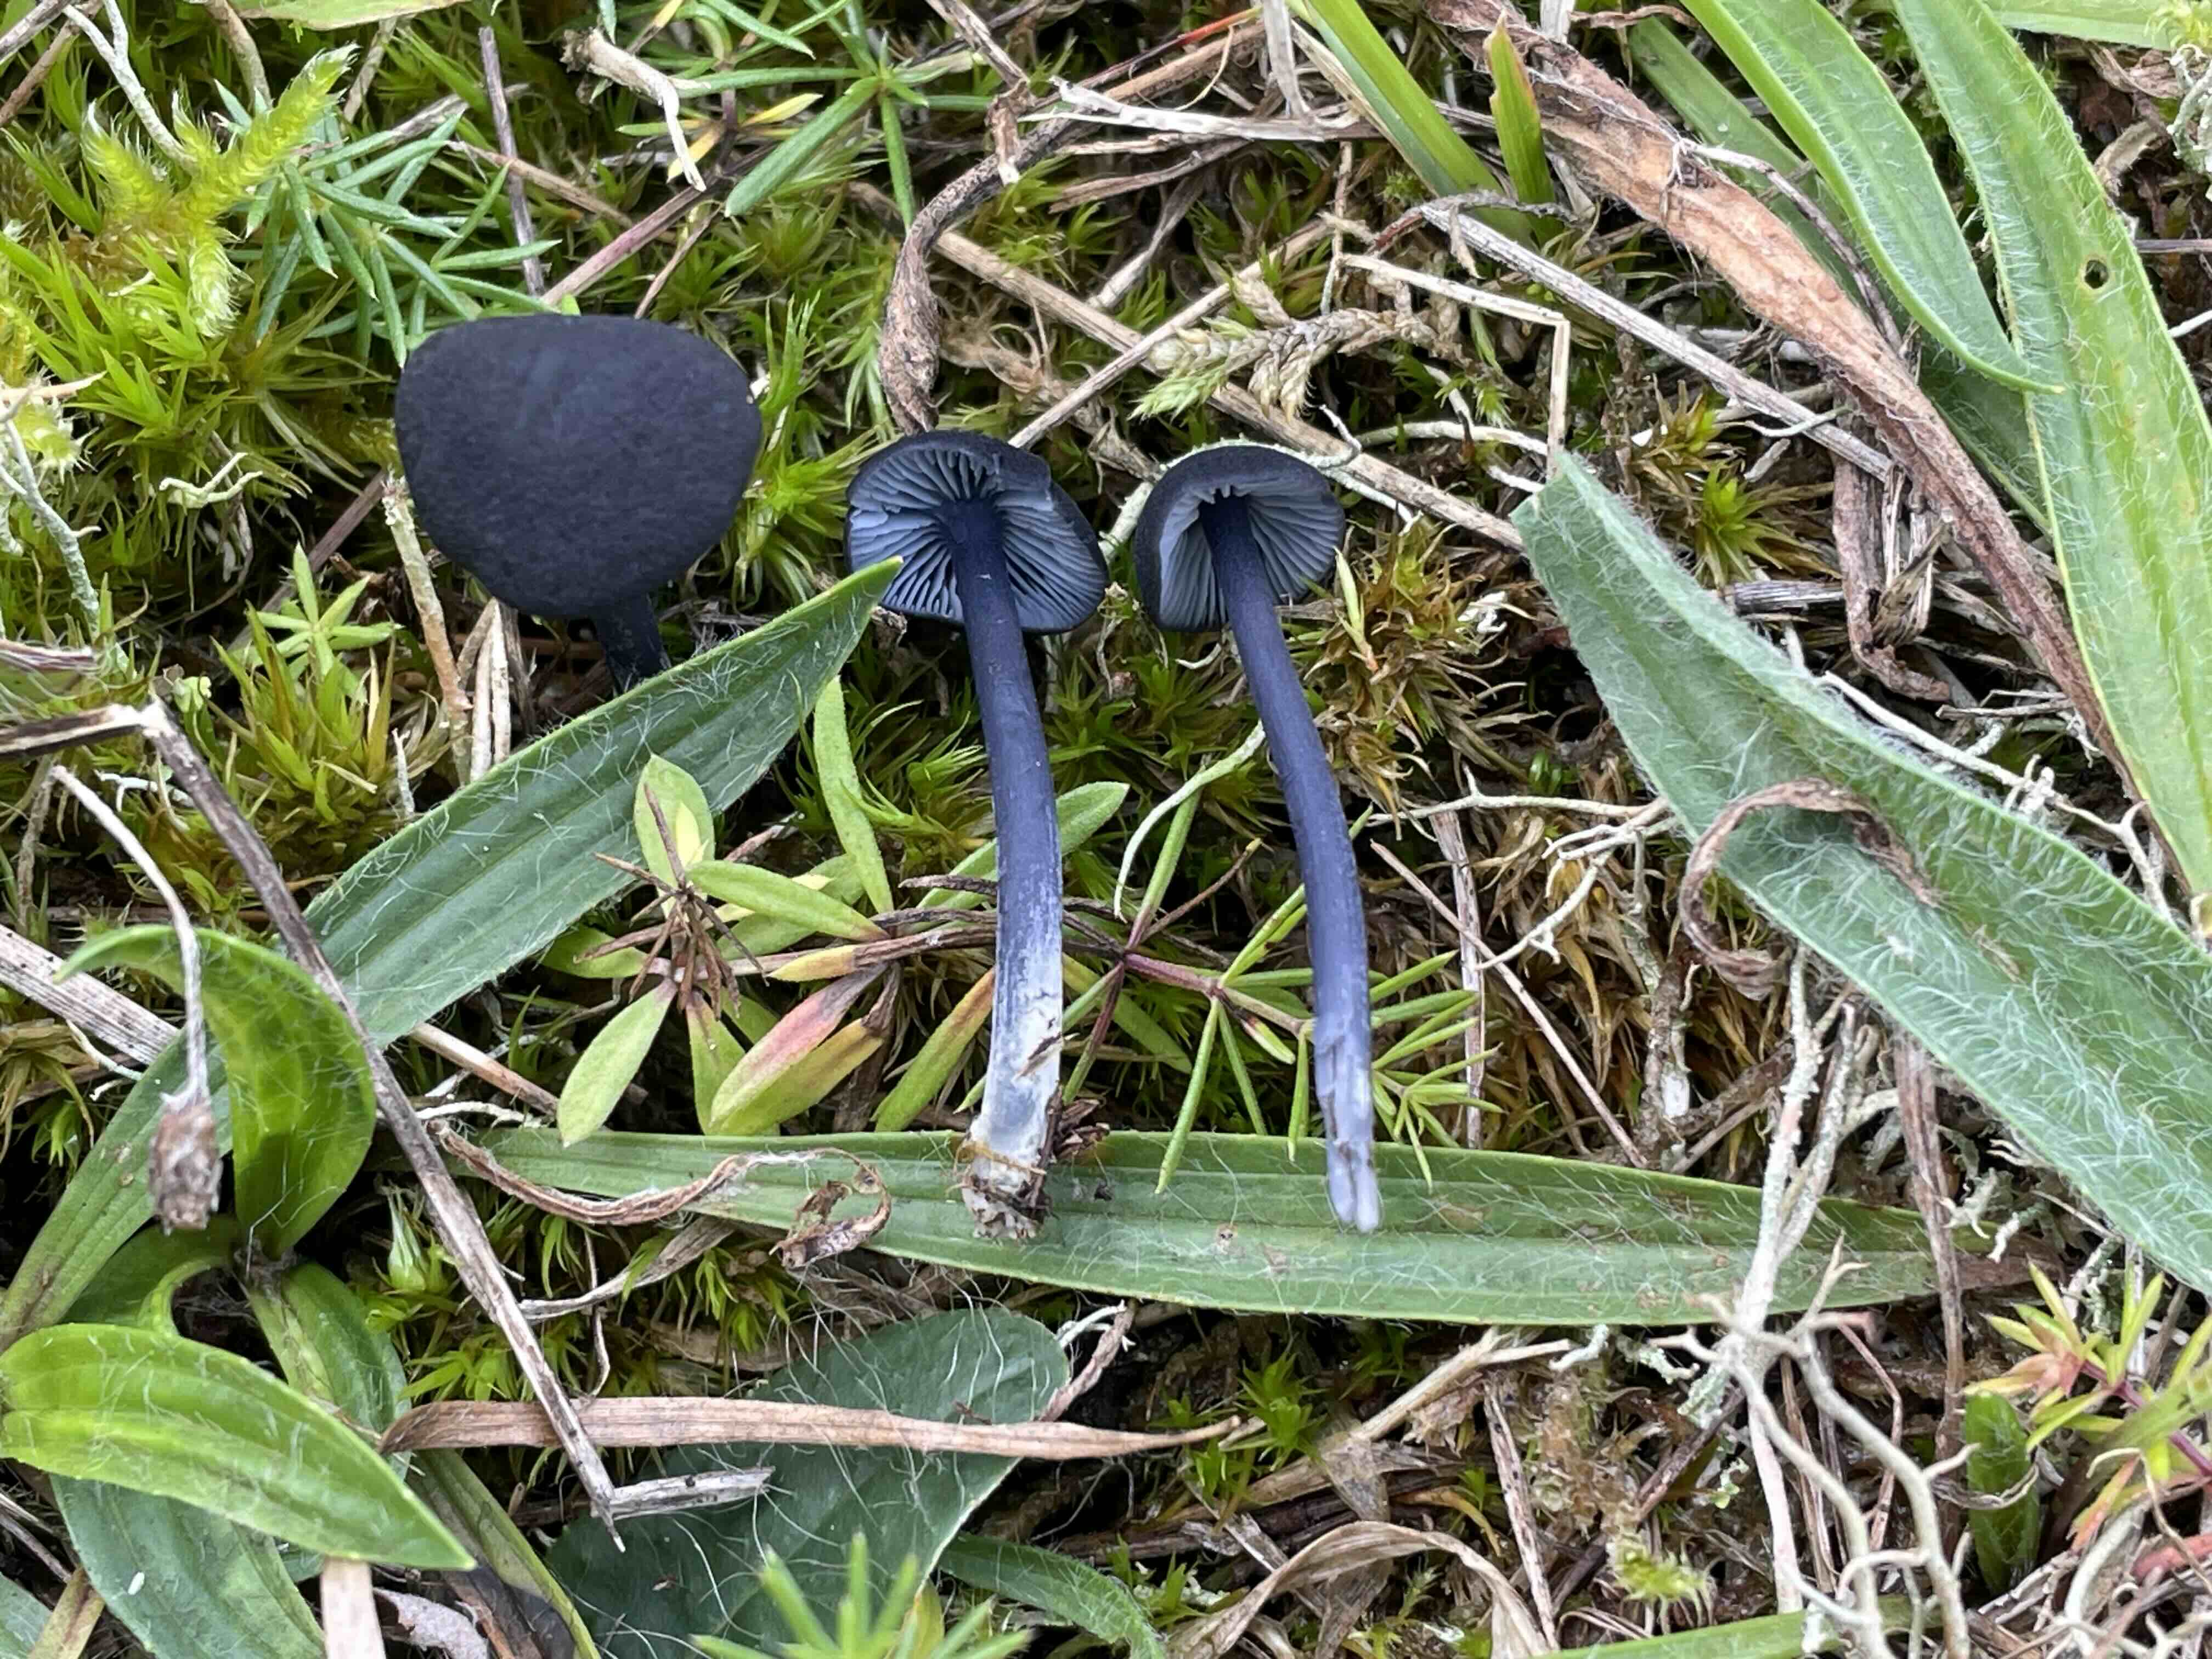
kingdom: Fungi
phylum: Basidiomycota
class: Agaricomycetes
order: Agaricales
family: Entolomataceae
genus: Entoloma
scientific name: Entoloma chalybeum
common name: blåbladet rødblad
